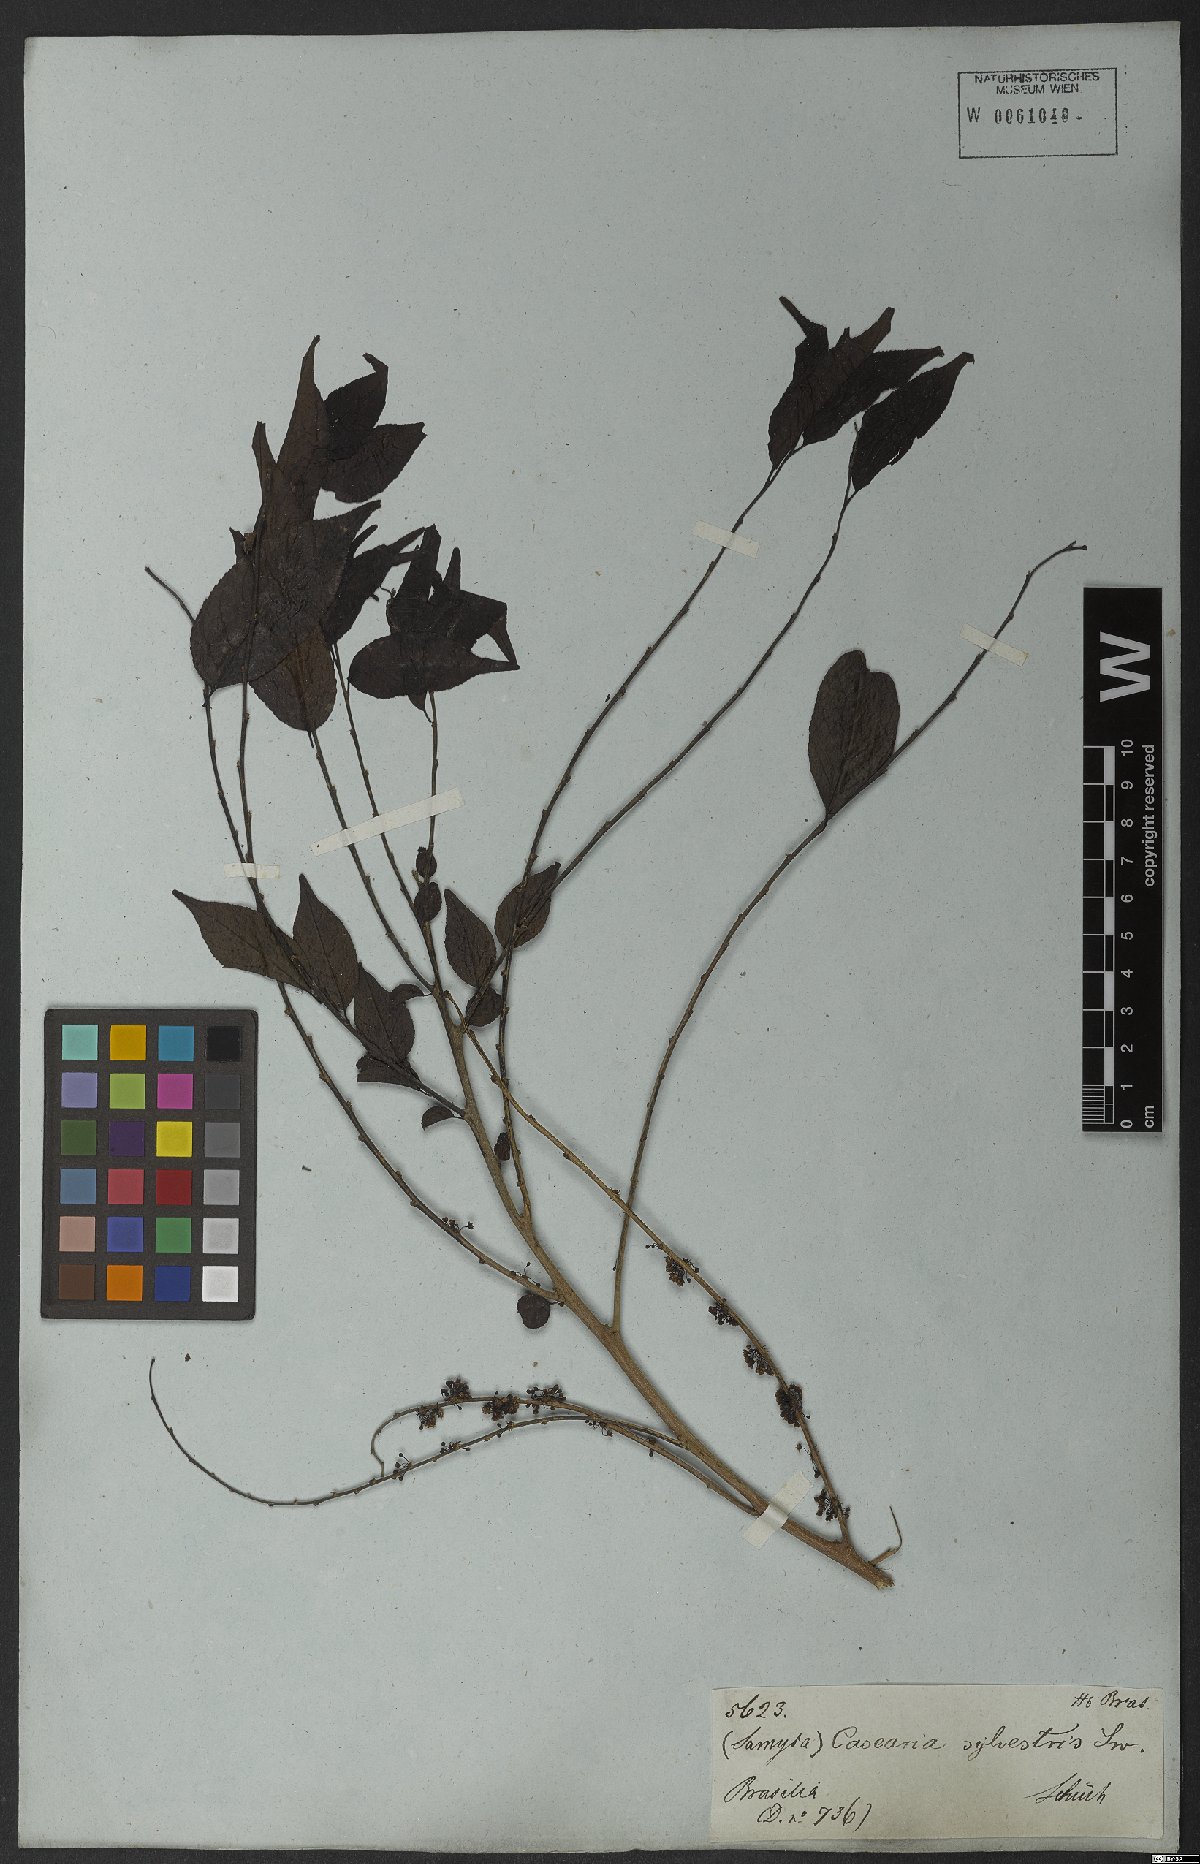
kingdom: Plantae
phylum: Tracheophyta
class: Magnoliopsida
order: Malpighiales
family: Salicaceae
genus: Casearia
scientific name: Casearia sylvestris
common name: Wild sage
